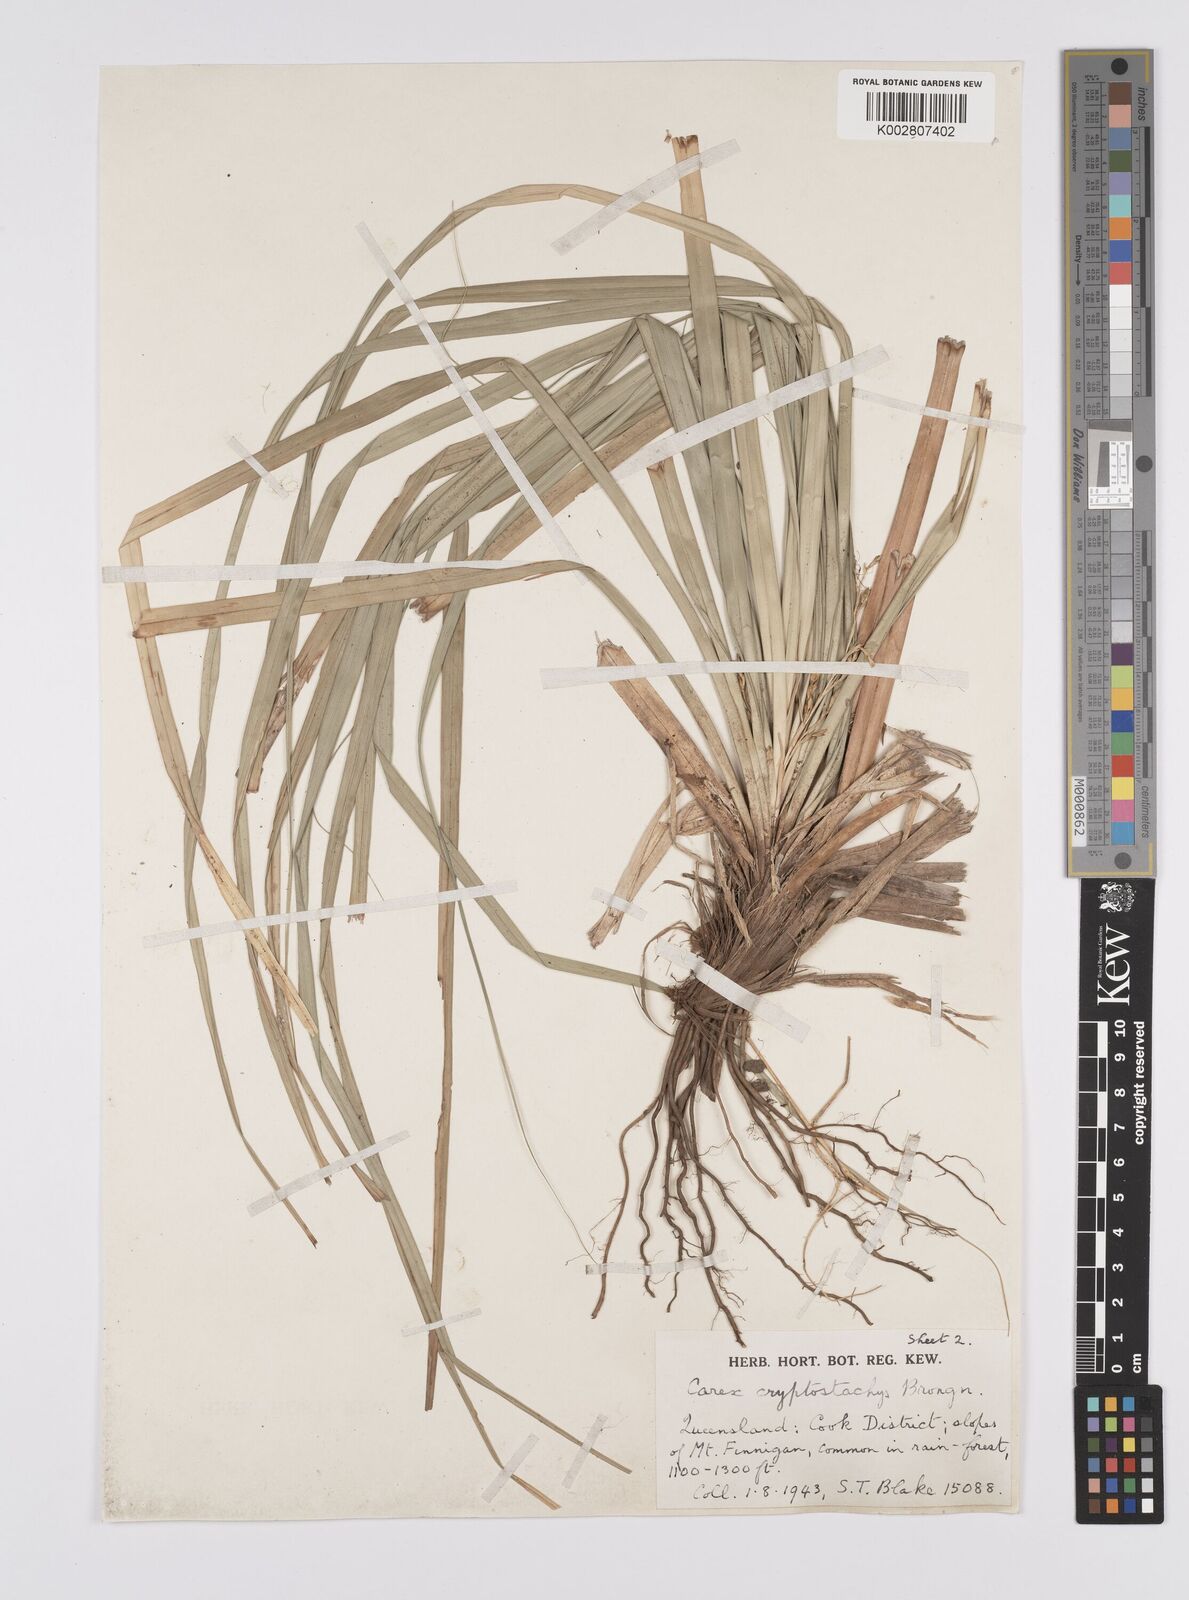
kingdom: Plantae
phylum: Tracheophyta
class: Liliopsida
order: Poales
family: Cyperaceae
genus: Carex
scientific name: Carex cryptostachys
